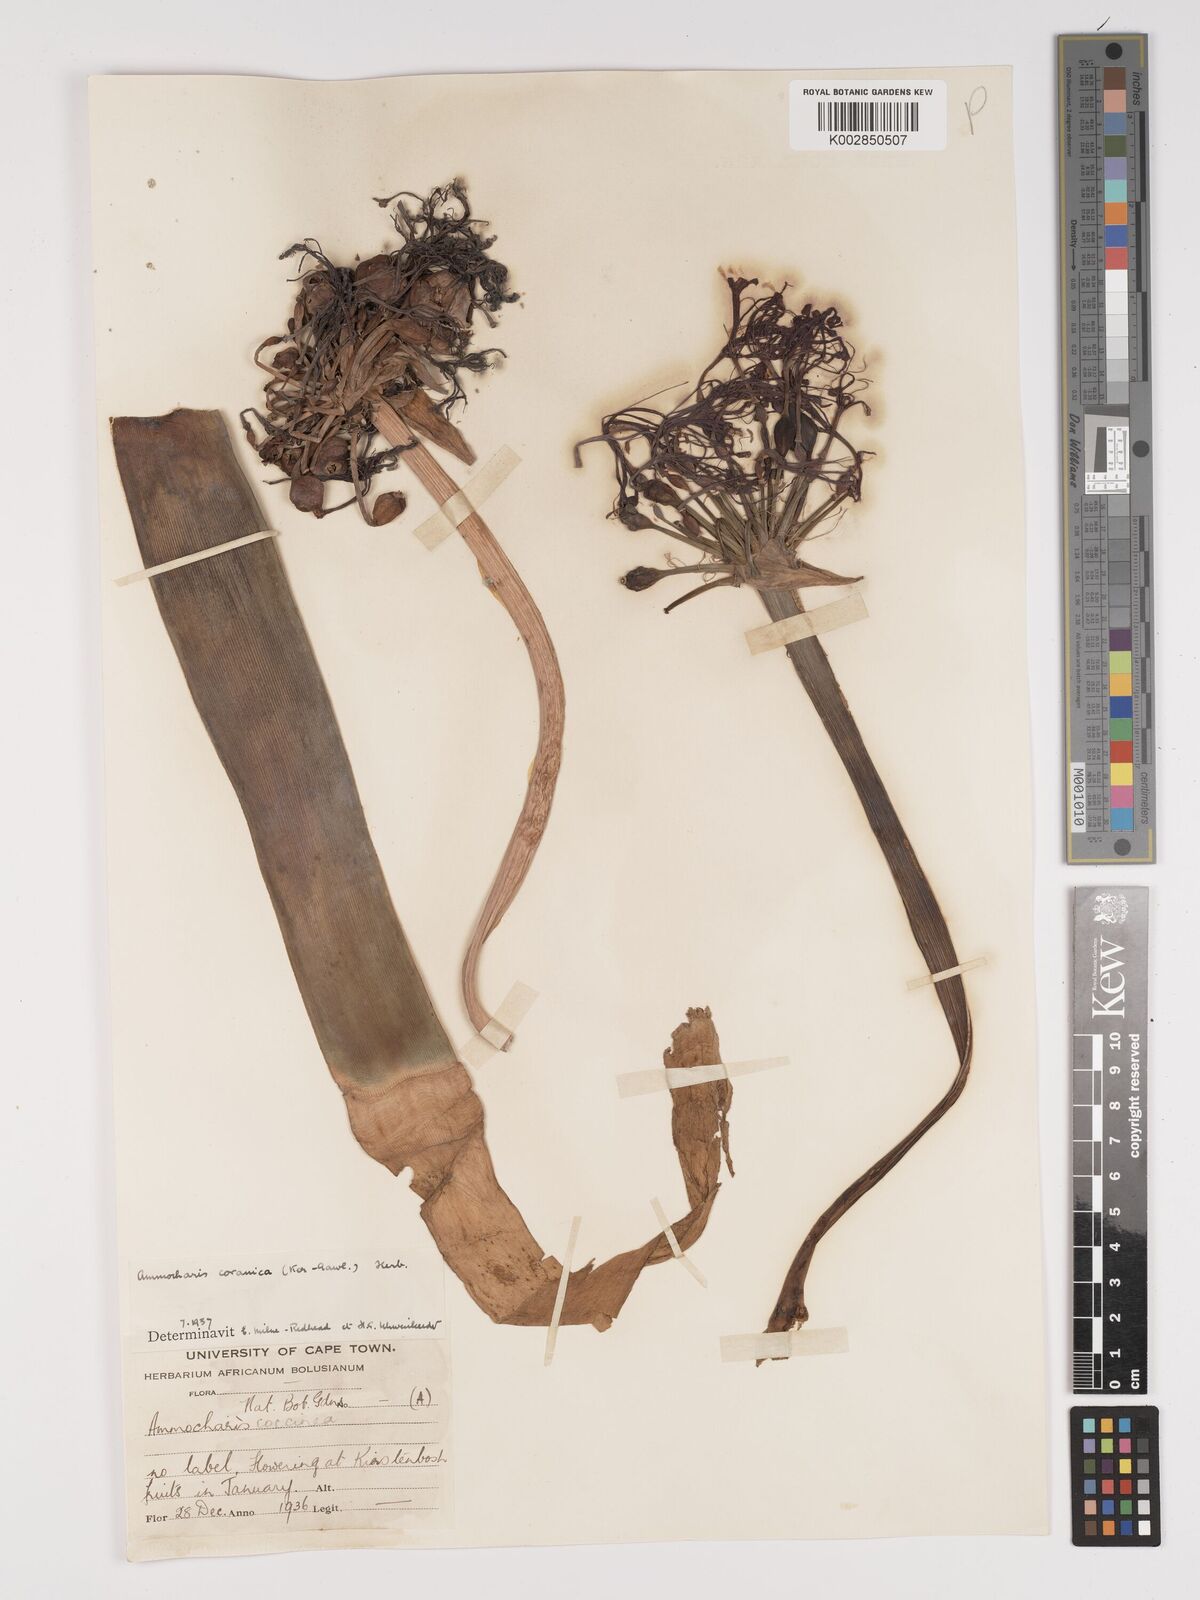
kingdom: Plantae
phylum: Tracheophyta
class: Liliopsida
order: Asparagales
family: Amaryllidaceae
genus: Ammocharis
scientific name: Ammocharis coranica
